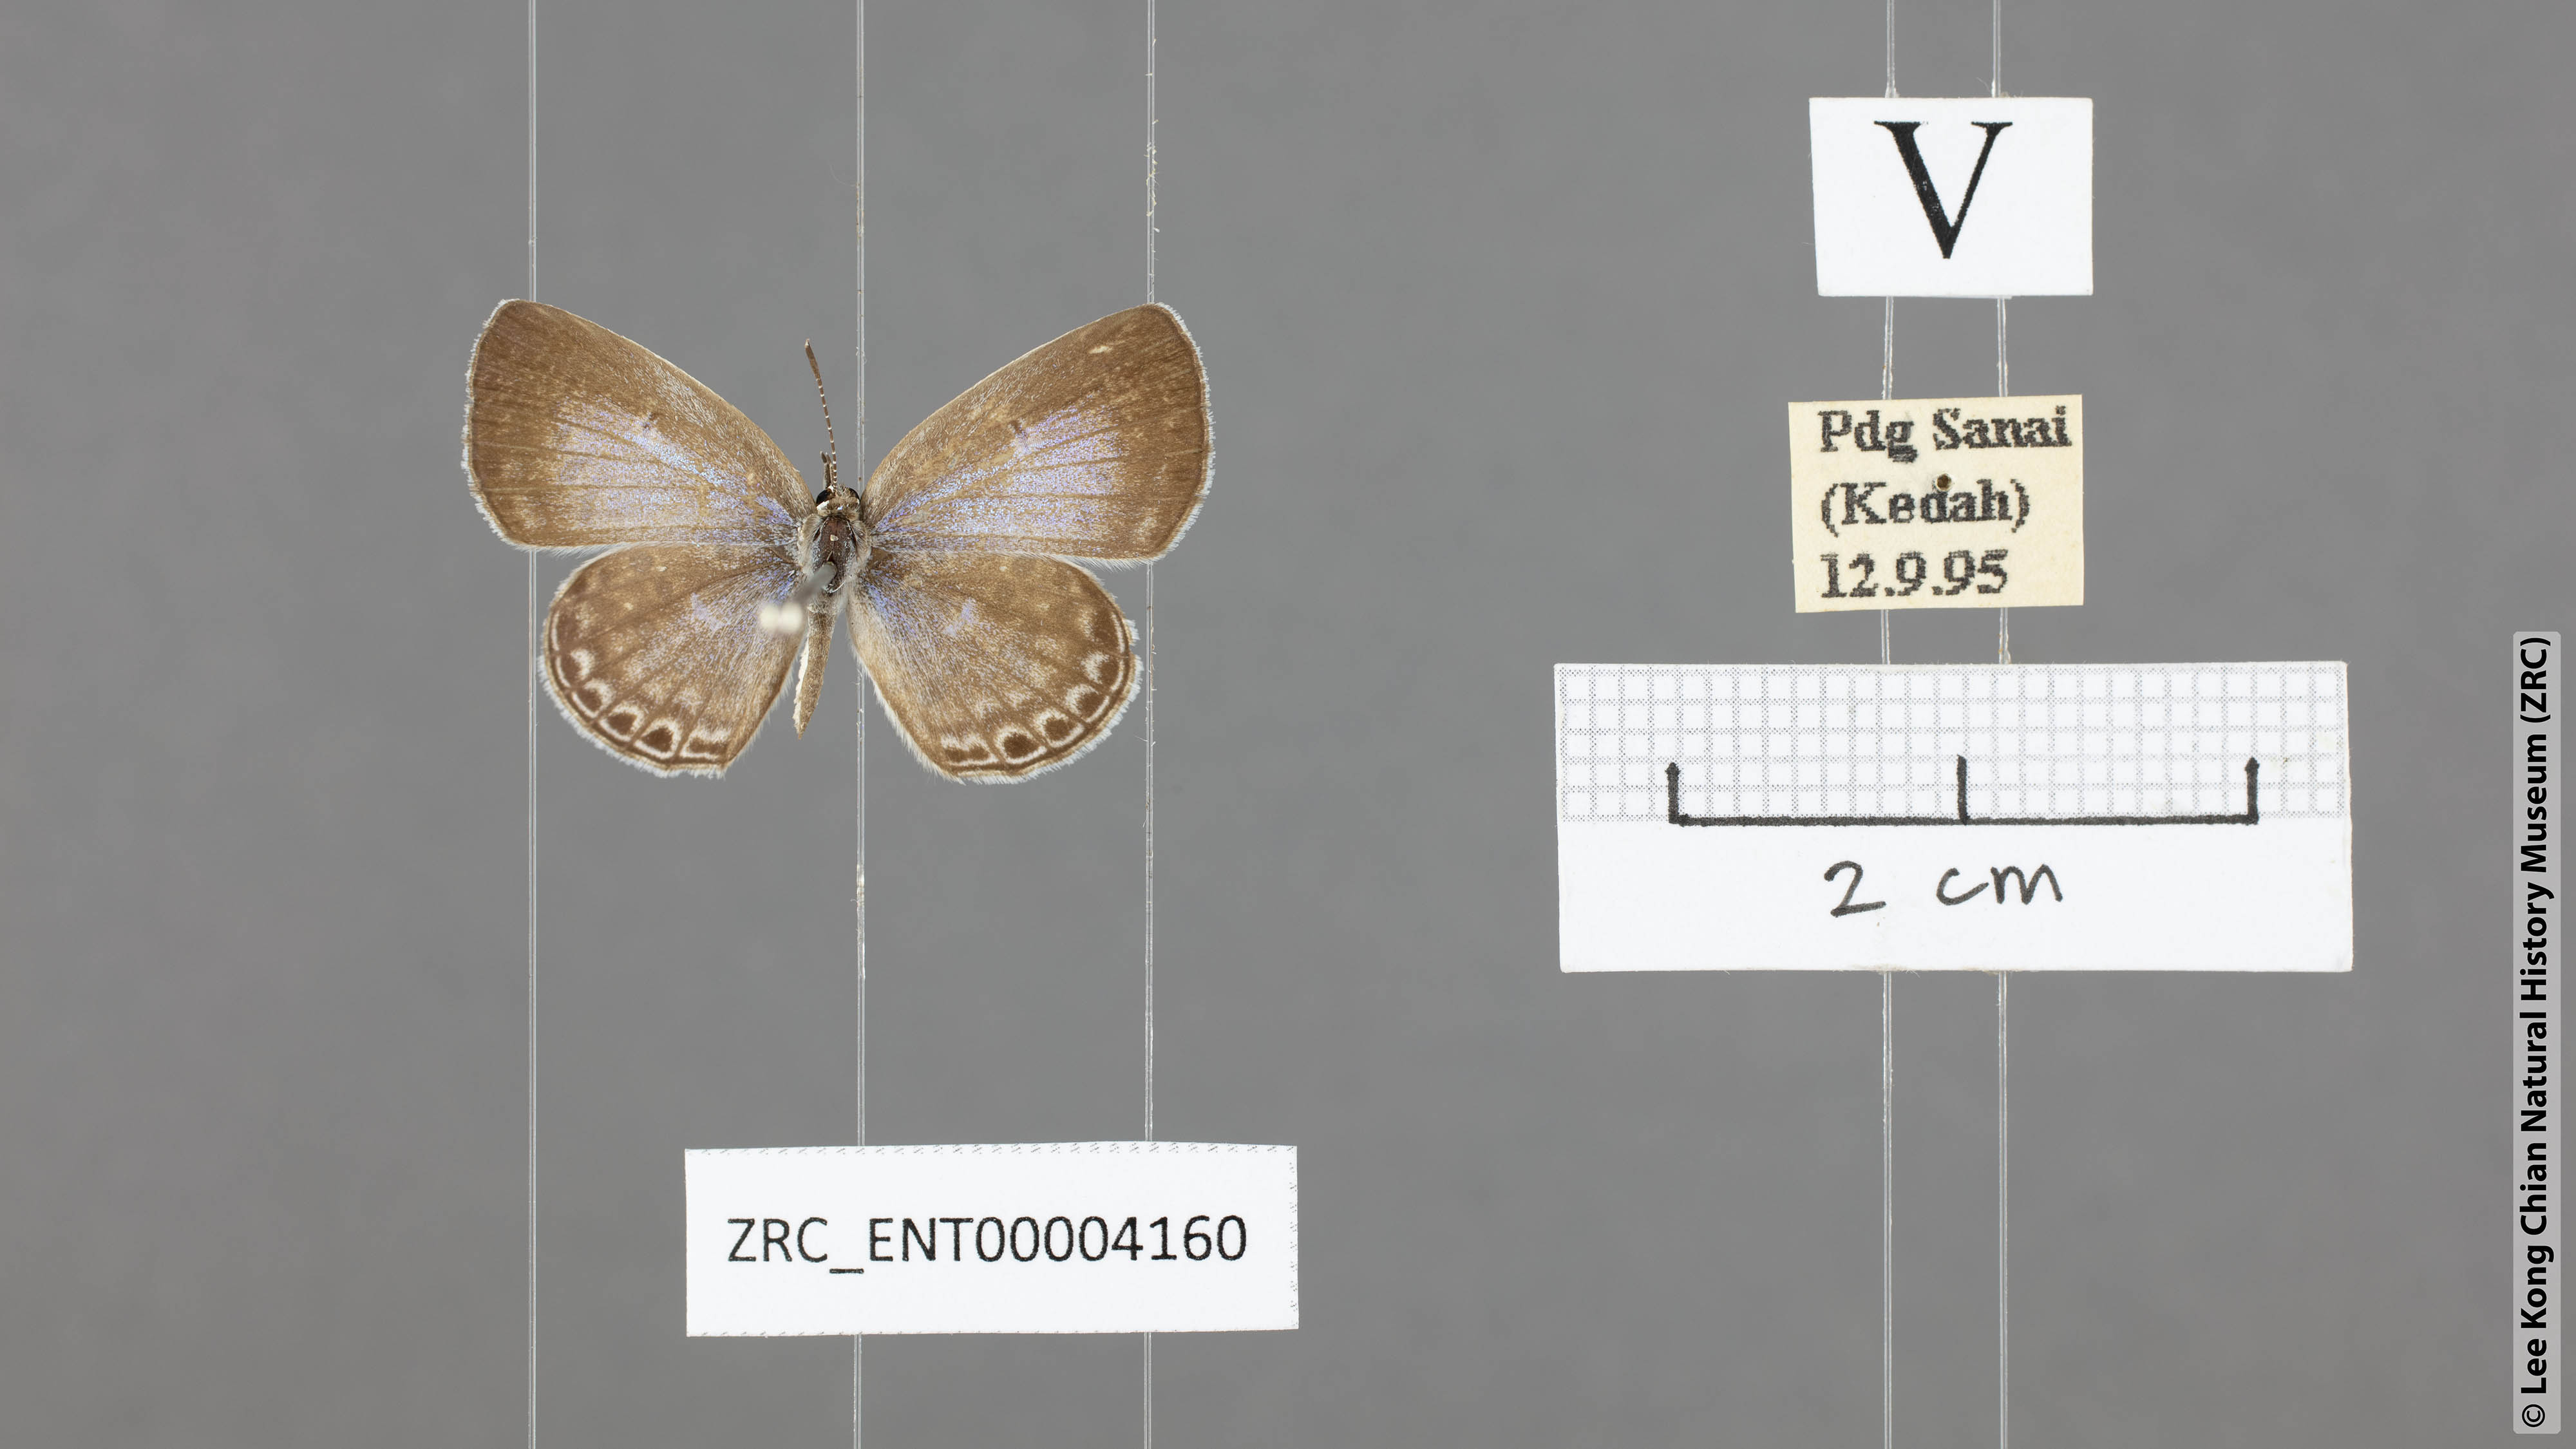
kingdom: Animalia
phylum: Arthropoda
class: Insecta
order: Lepidoptera
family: Lycaenidae
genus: Chilades
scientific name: Chilades laius
